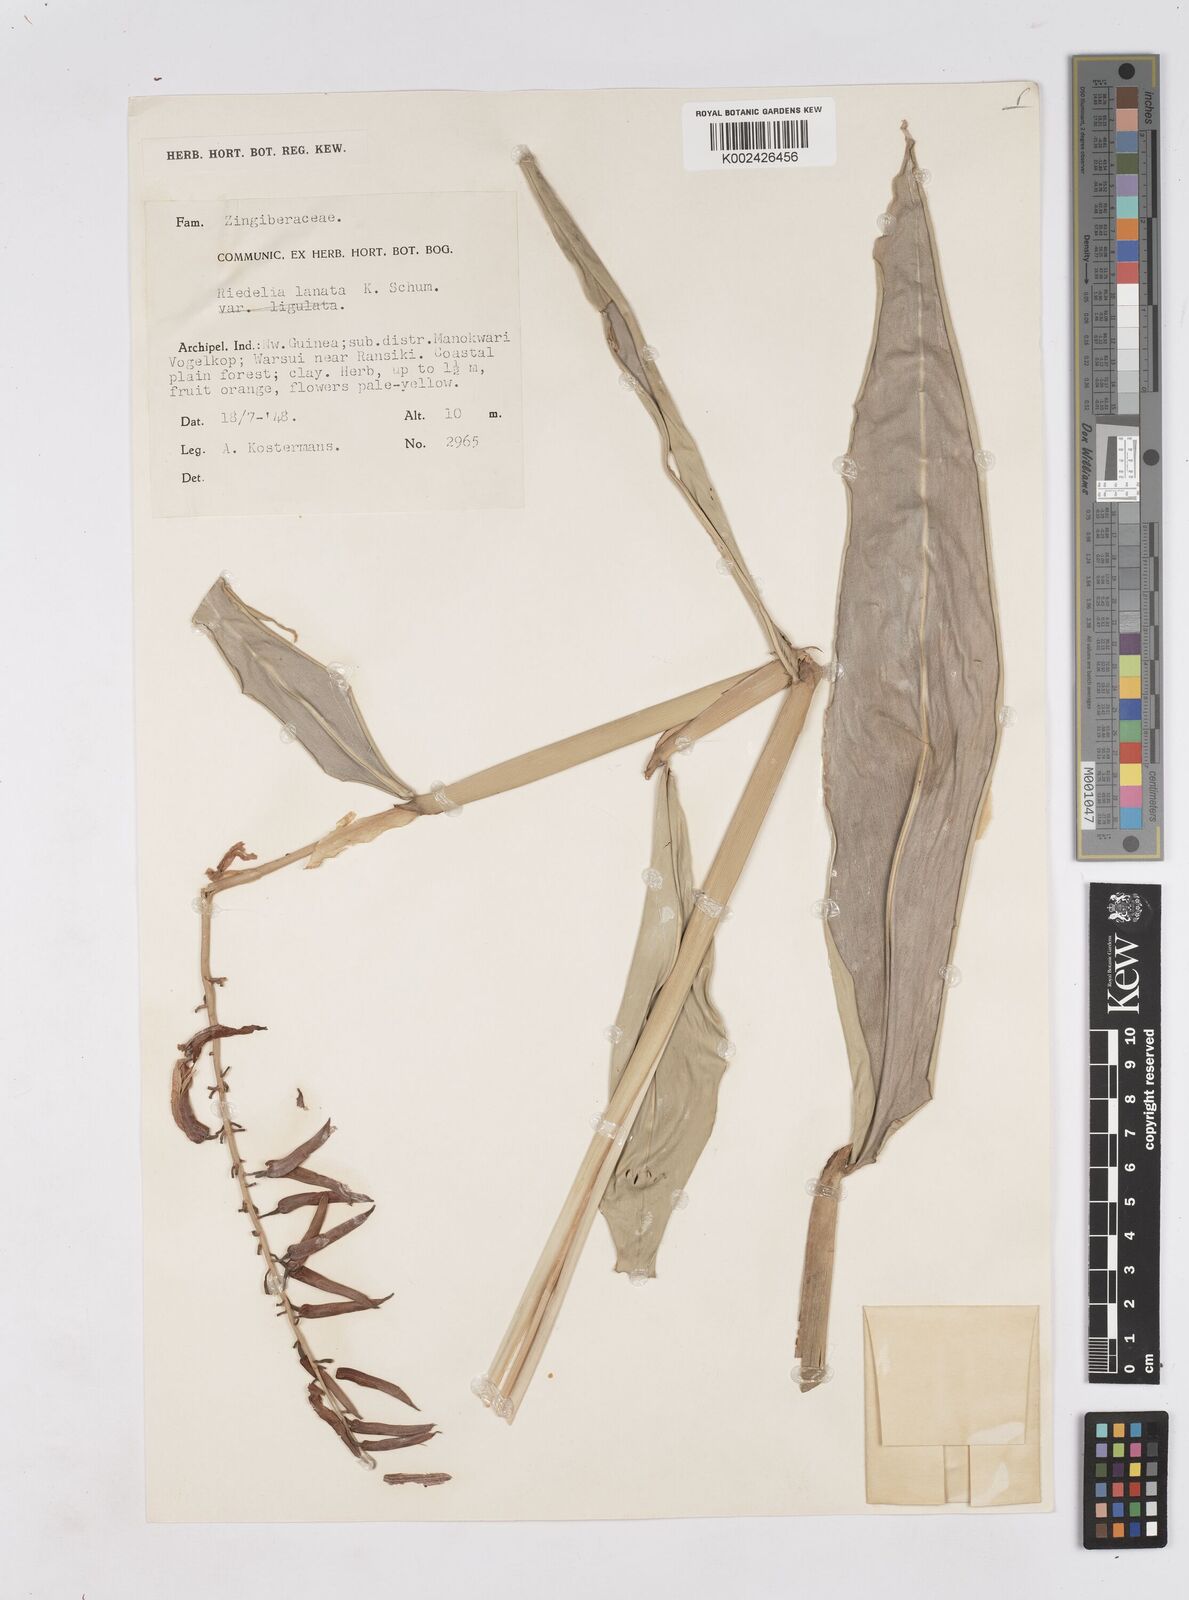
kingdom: Plantae
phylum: Tracheophyta
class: Liliopsida
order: Zingiberales
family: Zingiberaceae
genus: Riedelia
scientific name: Riedelia lanata
